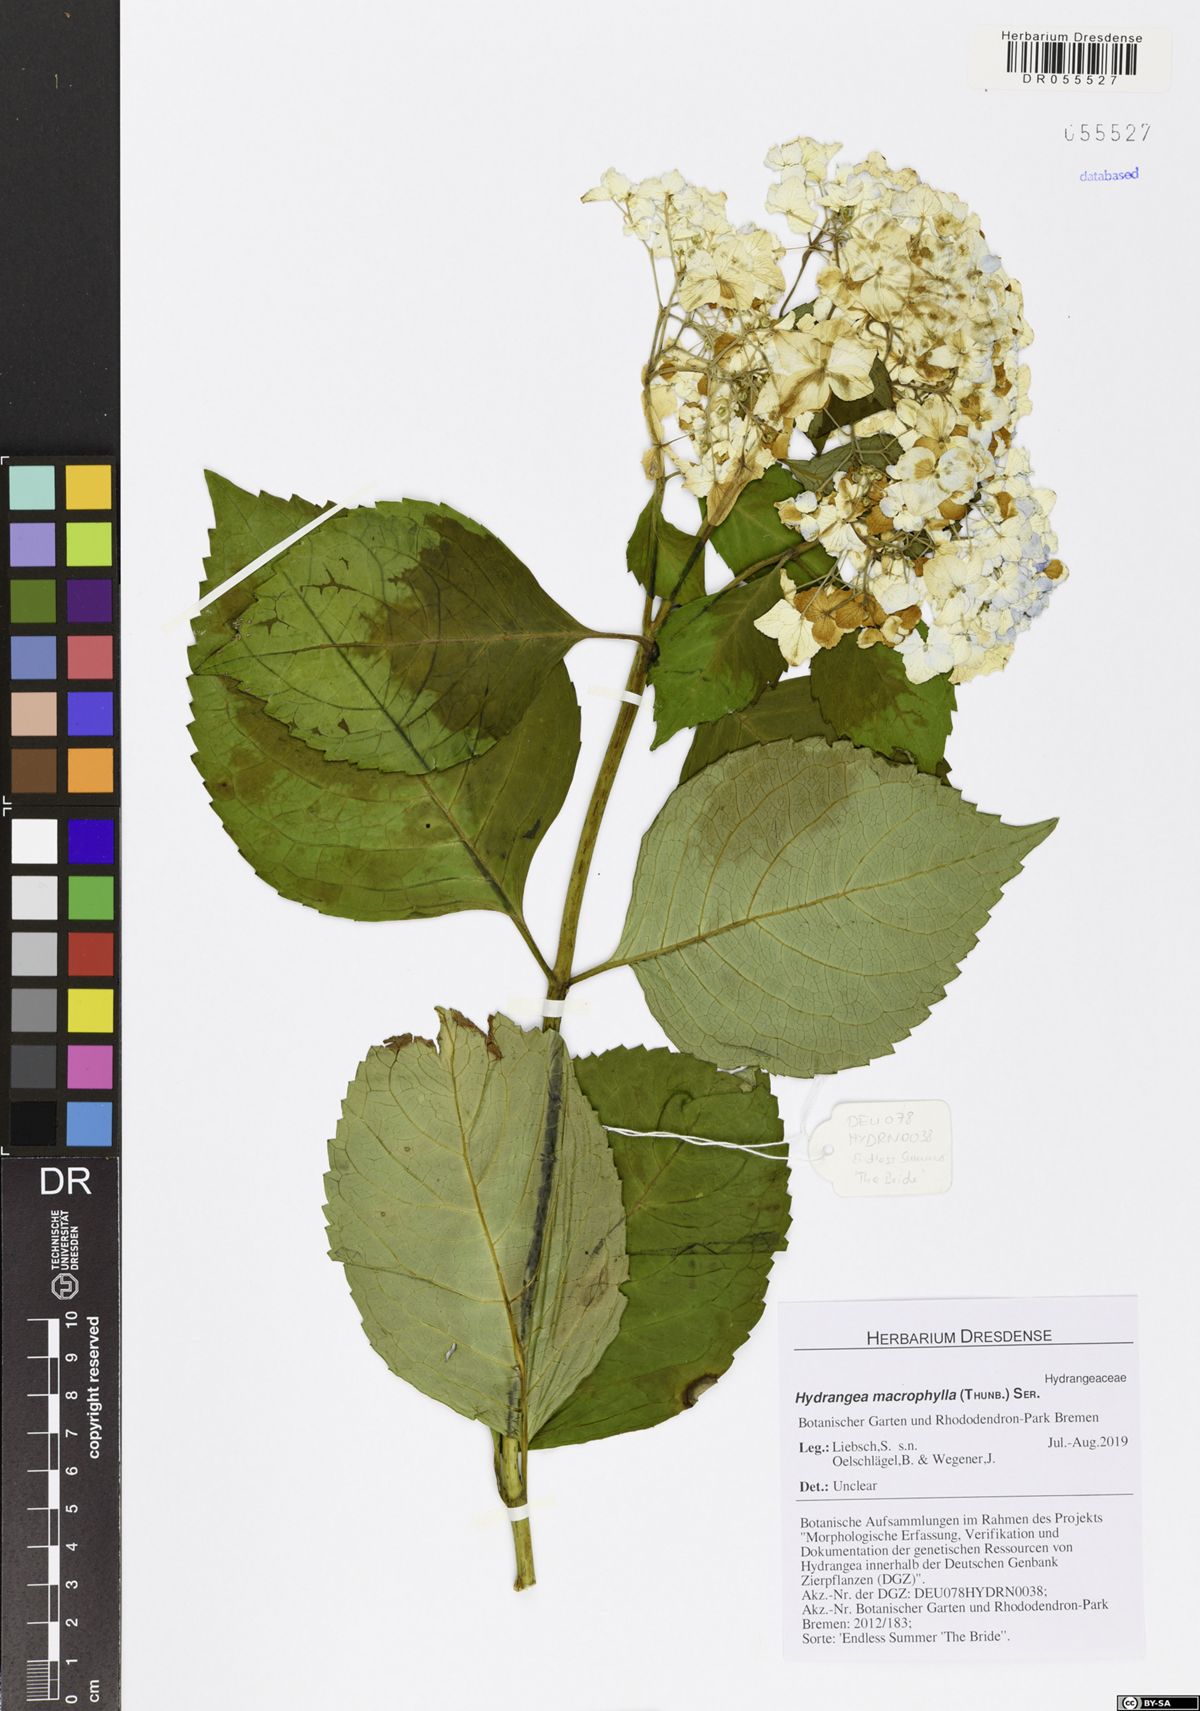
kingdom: Plantae
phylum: Tracheophyta
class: Magnoliopsida
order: Cornales
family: Hydrangeaceae
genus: Hydrangea
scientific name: Hydrangea macrophylla
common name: Hydrangea
